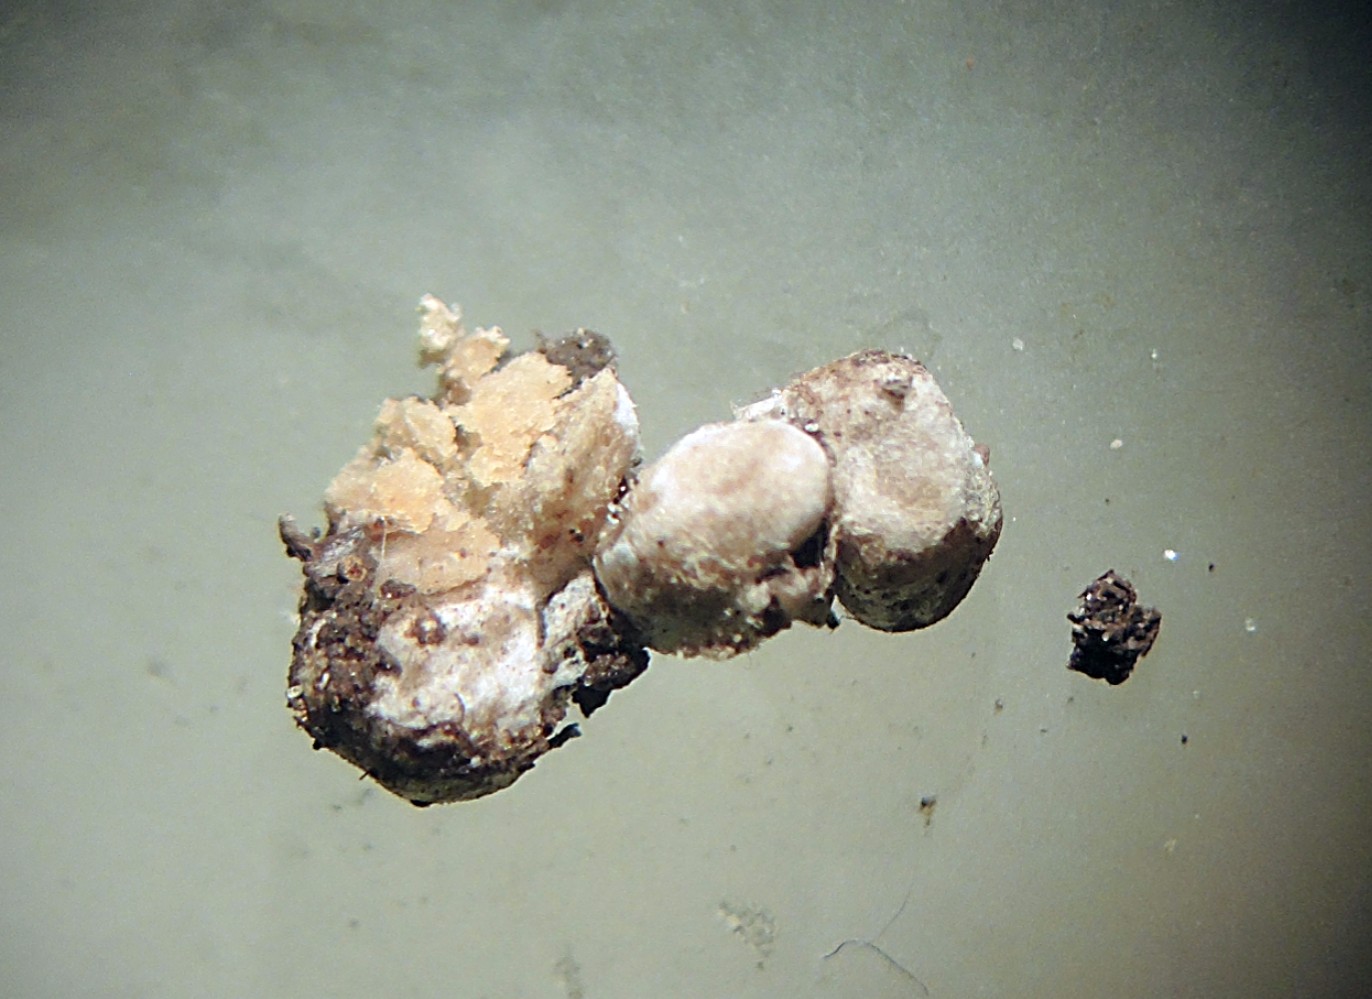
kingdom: Fungi
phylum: Glomeromycota
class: Glomeromycetes
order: Glomerales
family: Glomeraceae
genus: Glomus
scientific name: Glomus microcarpum
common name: Small-spored pea truffle
